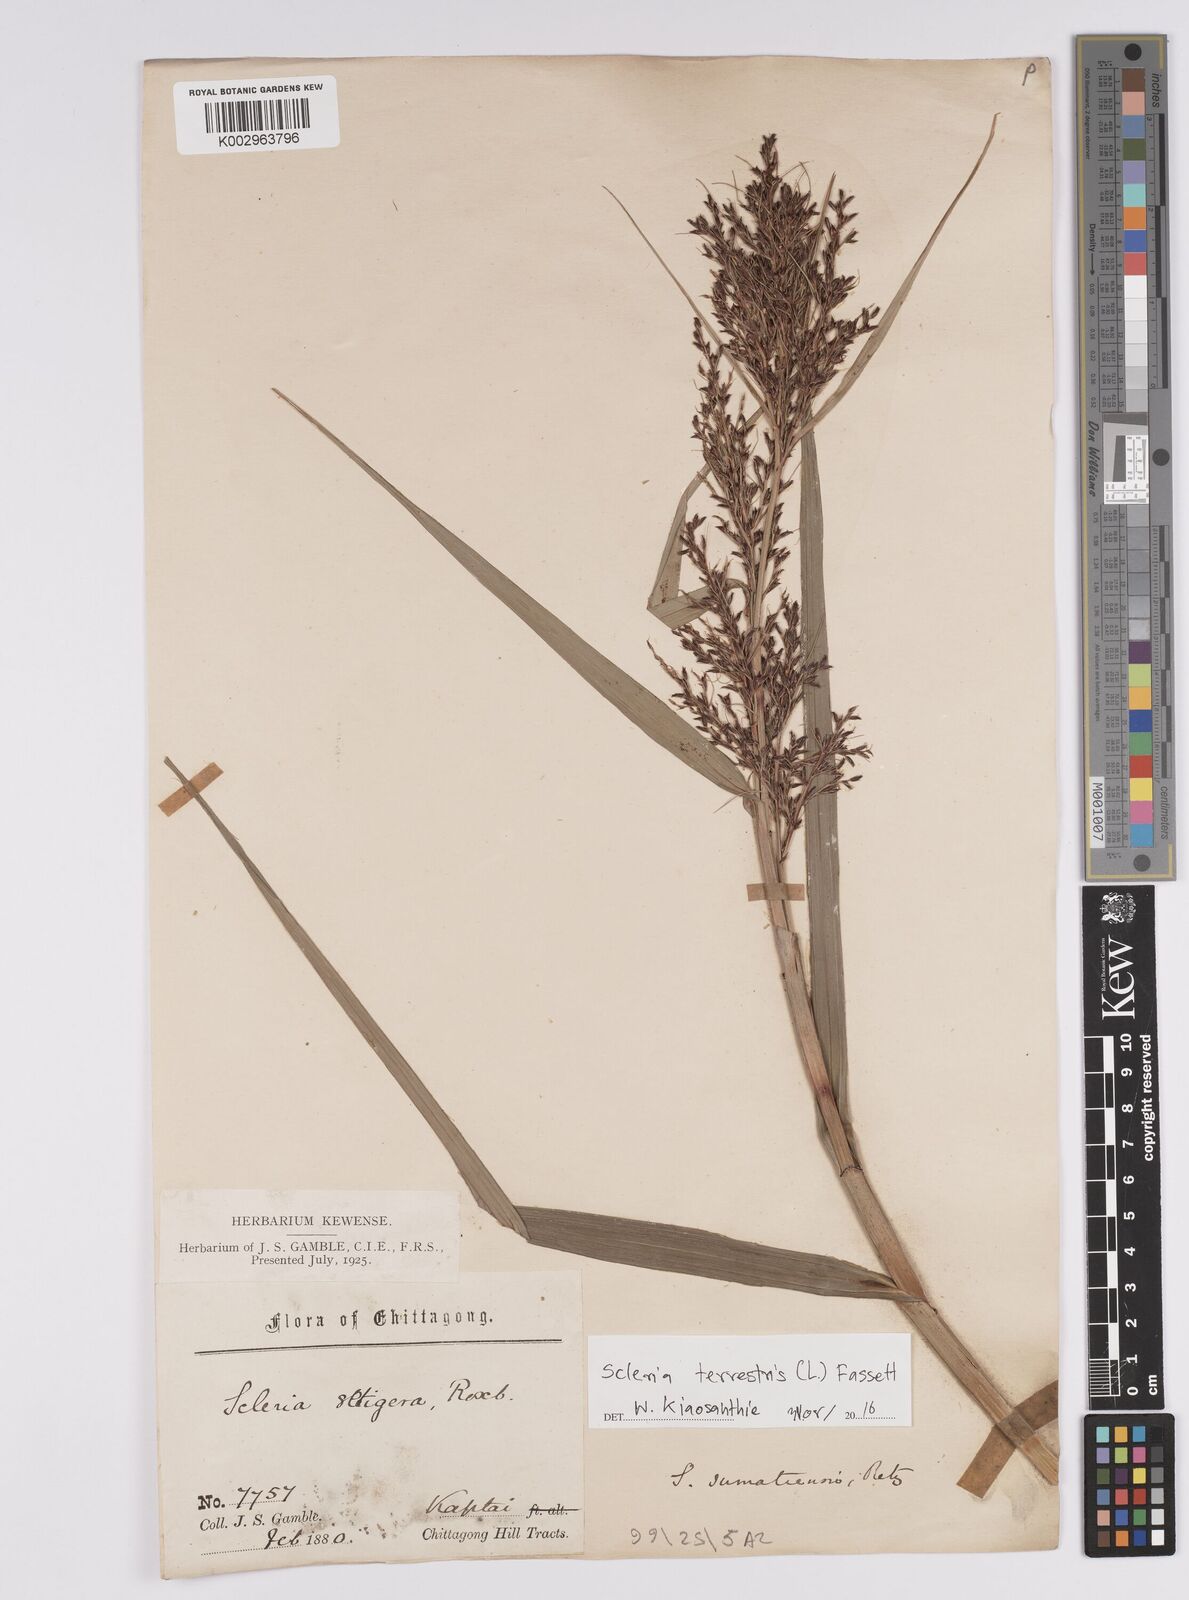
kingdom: Plantae
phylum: Tracheophyta
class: Liliopsida
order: Poales
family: Cyperaceae
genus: Scleria
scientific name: Scleria terrestris
